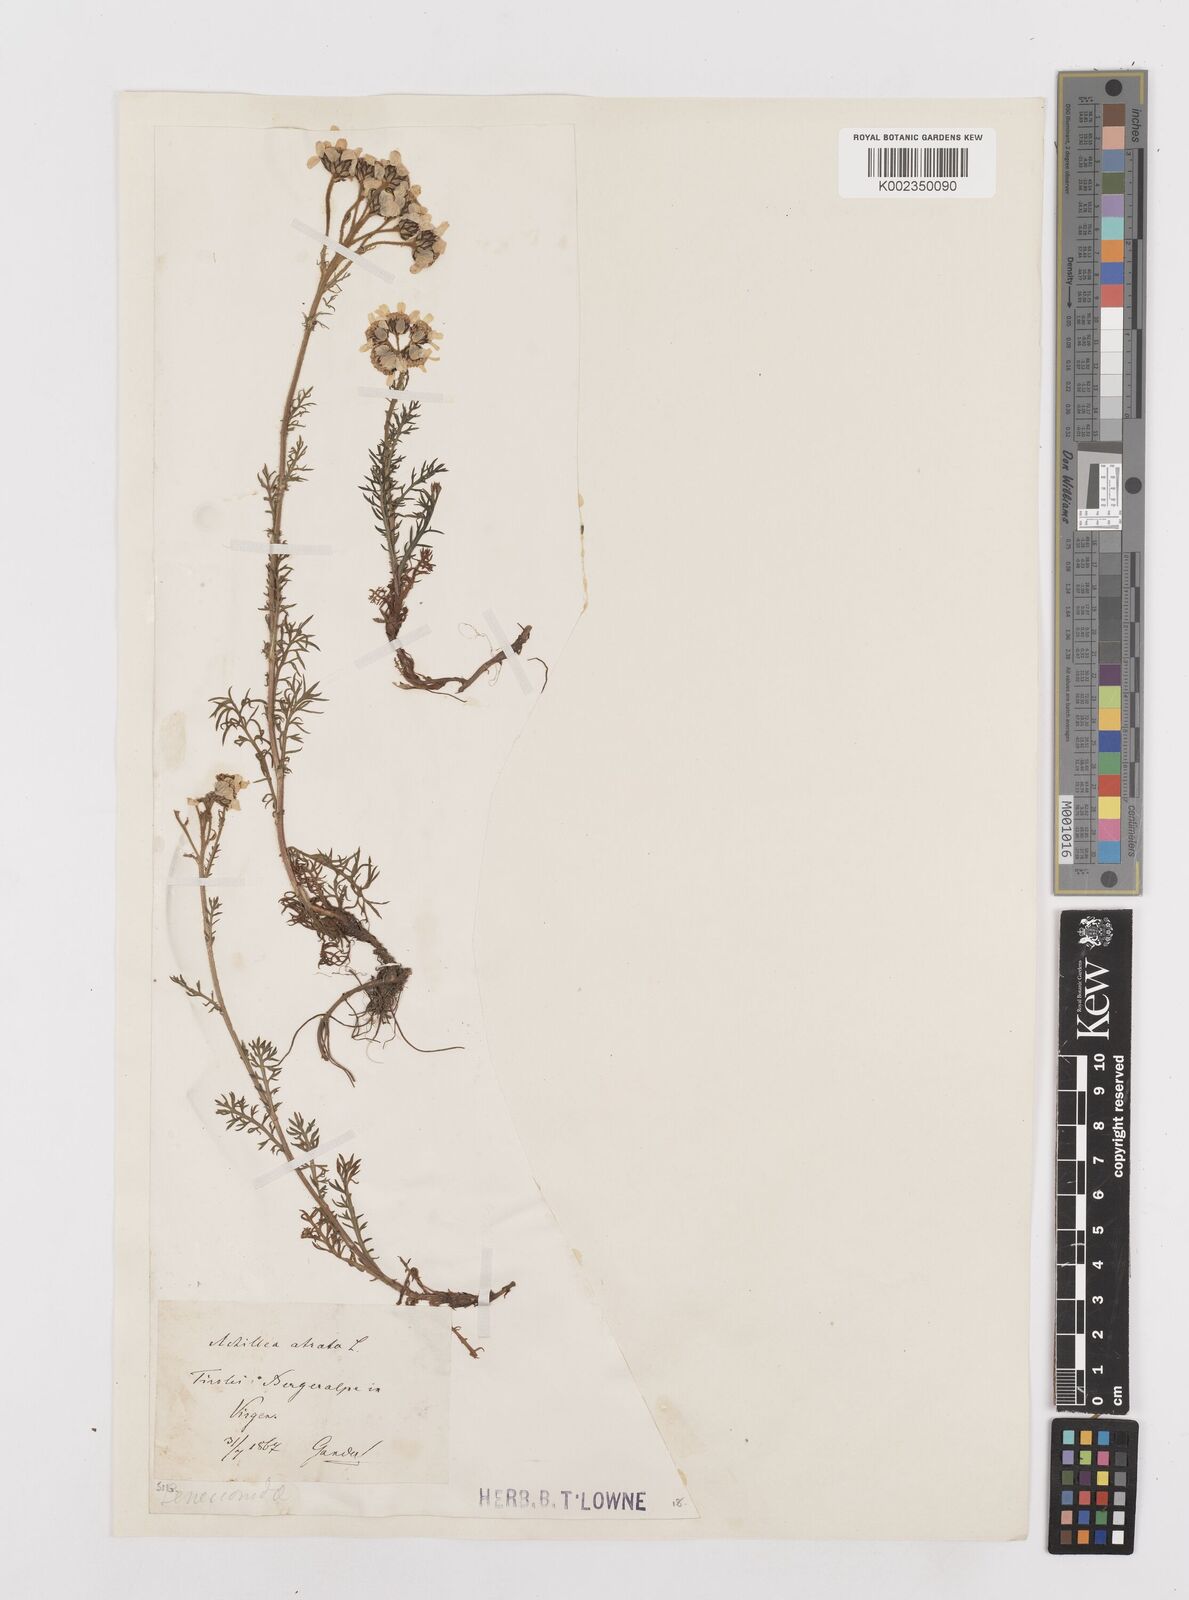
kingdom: Plantae
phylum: Tracheophyta
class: Magnoliopsida
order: Asterales
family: Asteraceae
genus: Achillea
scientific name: Achillea atrata
